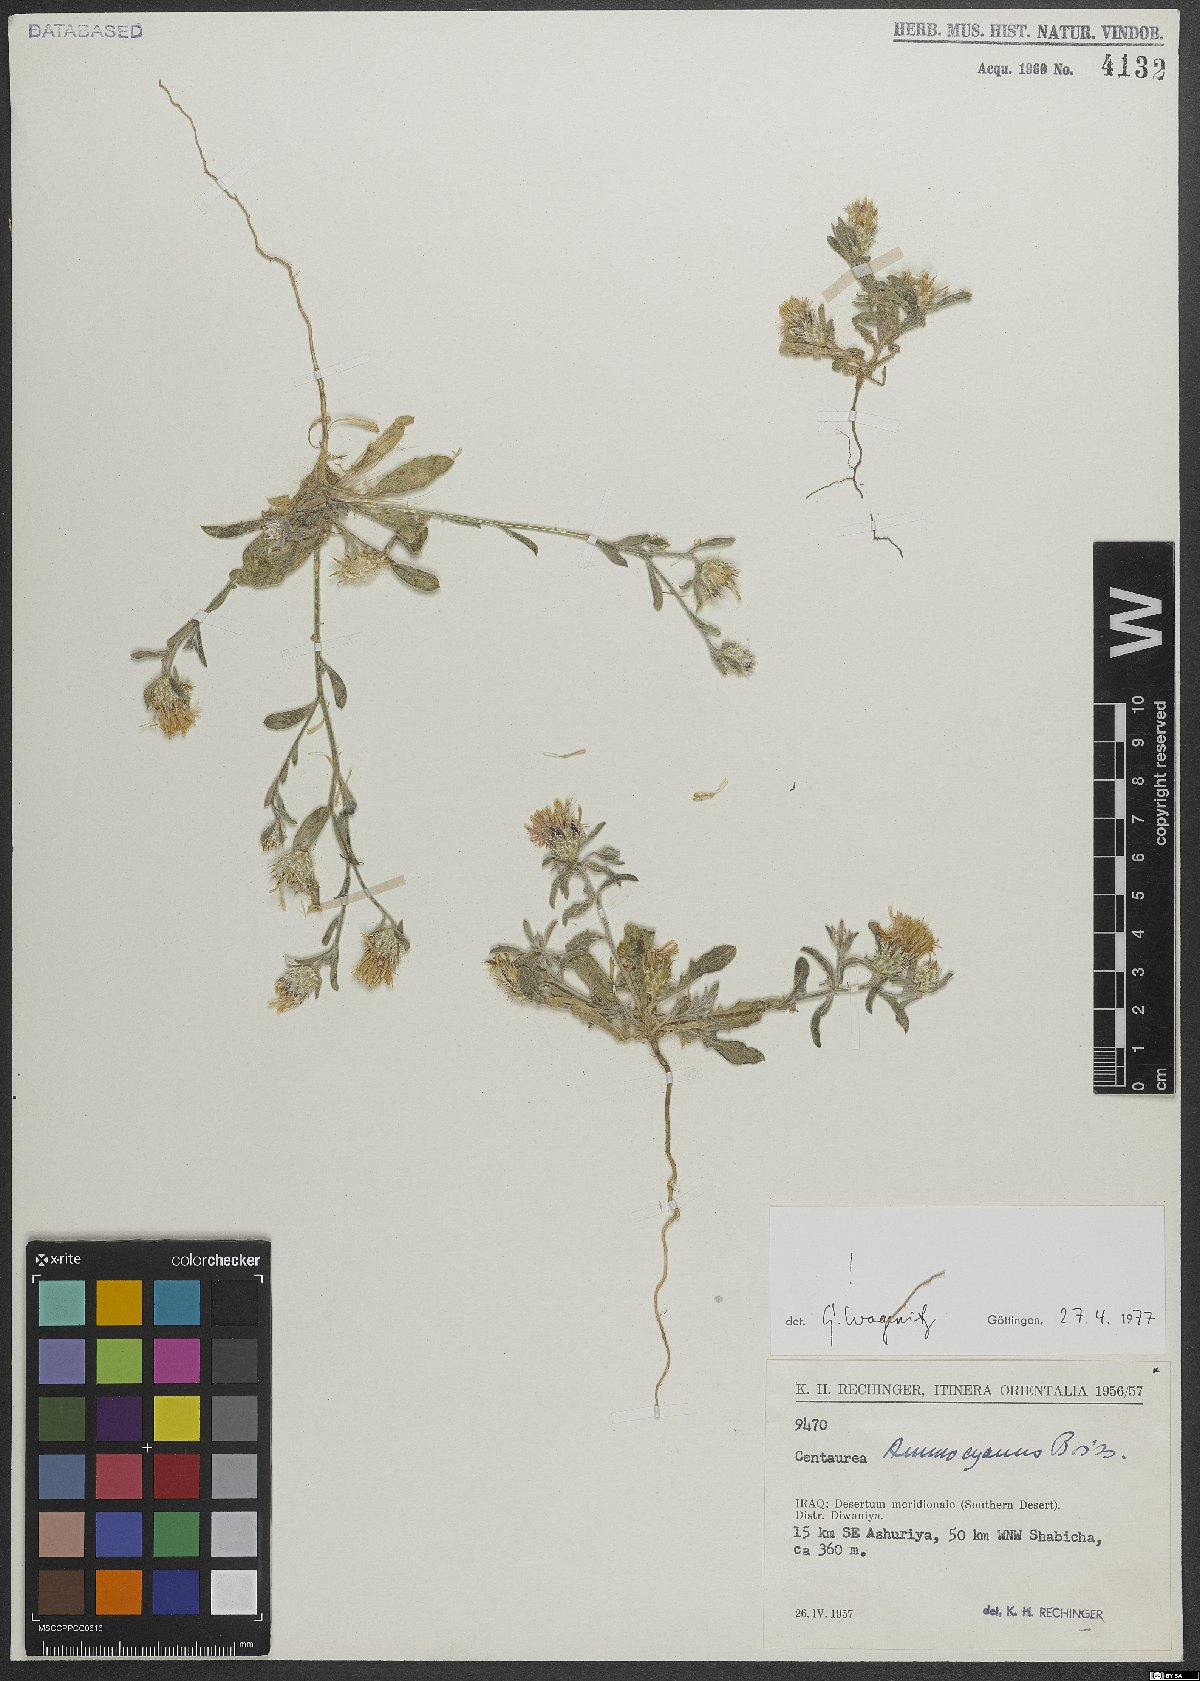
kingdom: Plantae
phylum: Tracheophyta
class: Magnoliopsida
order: Asterales
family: Asteraceae
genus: Centaurea
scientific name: Centaurea ammocyanus
